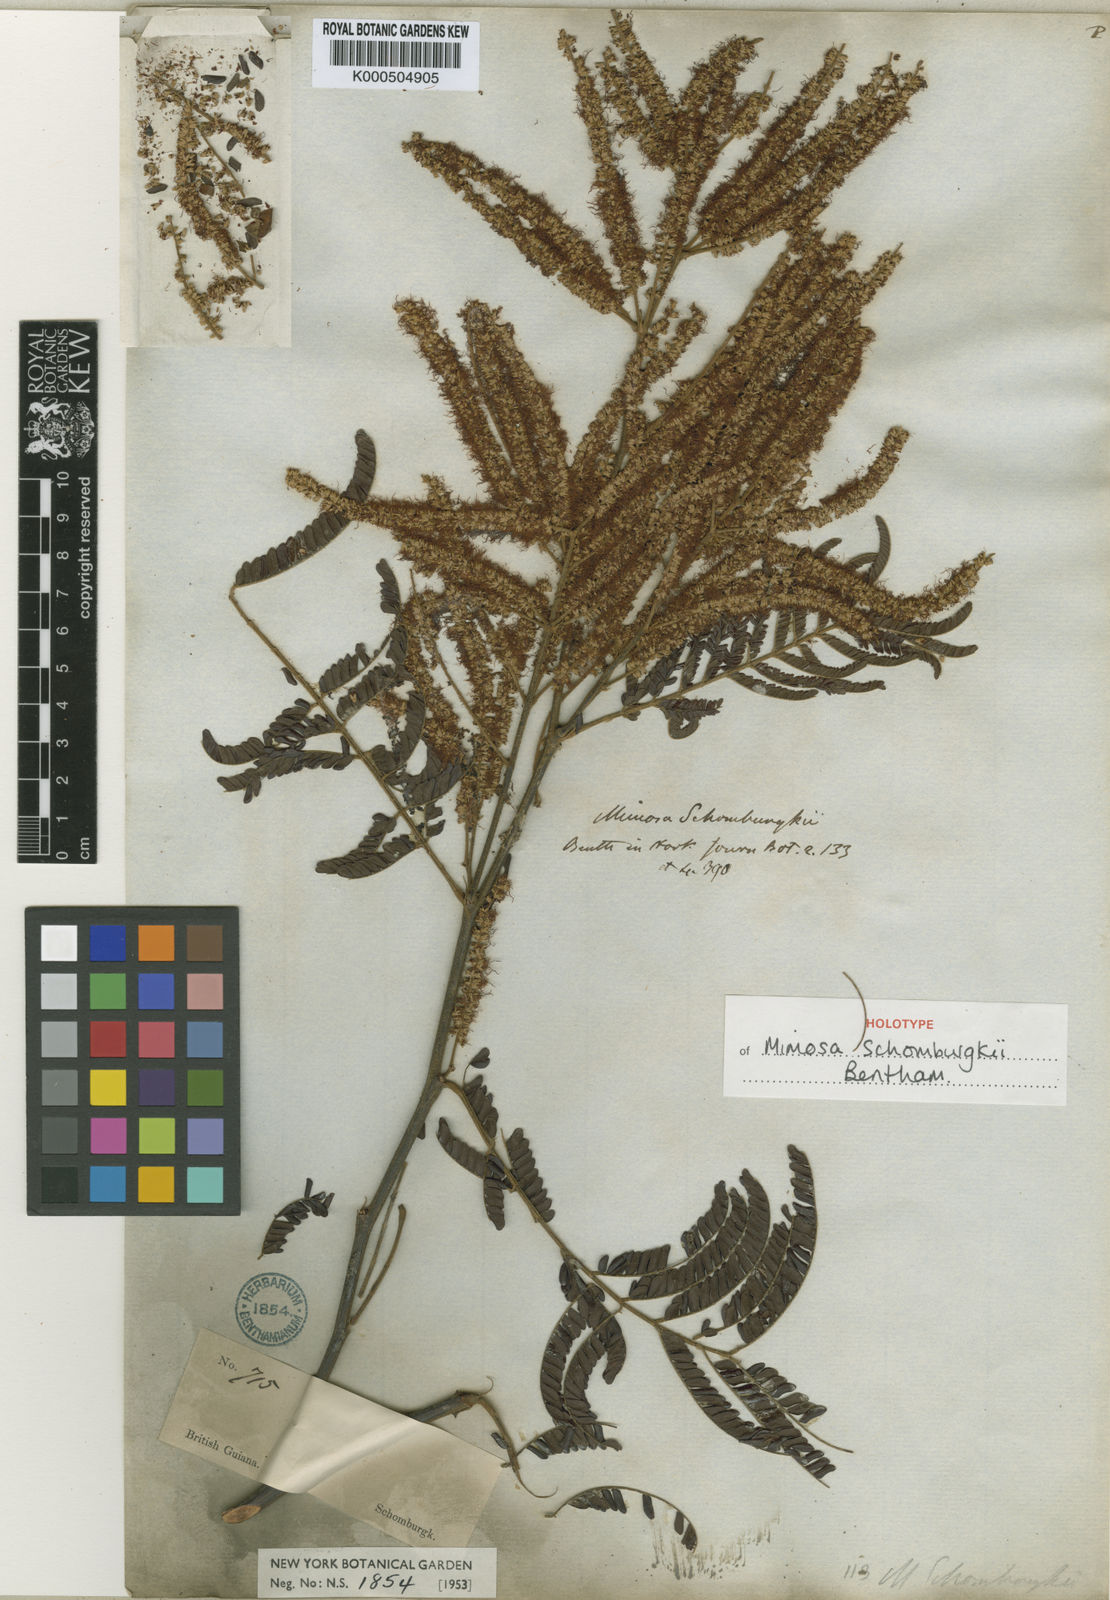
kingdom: Plantae
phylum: Tracheophyta
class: Magnoliopsida
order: Fabales
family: Fabaceae
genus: Mimosa
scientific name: Mimosa schomburgkii
